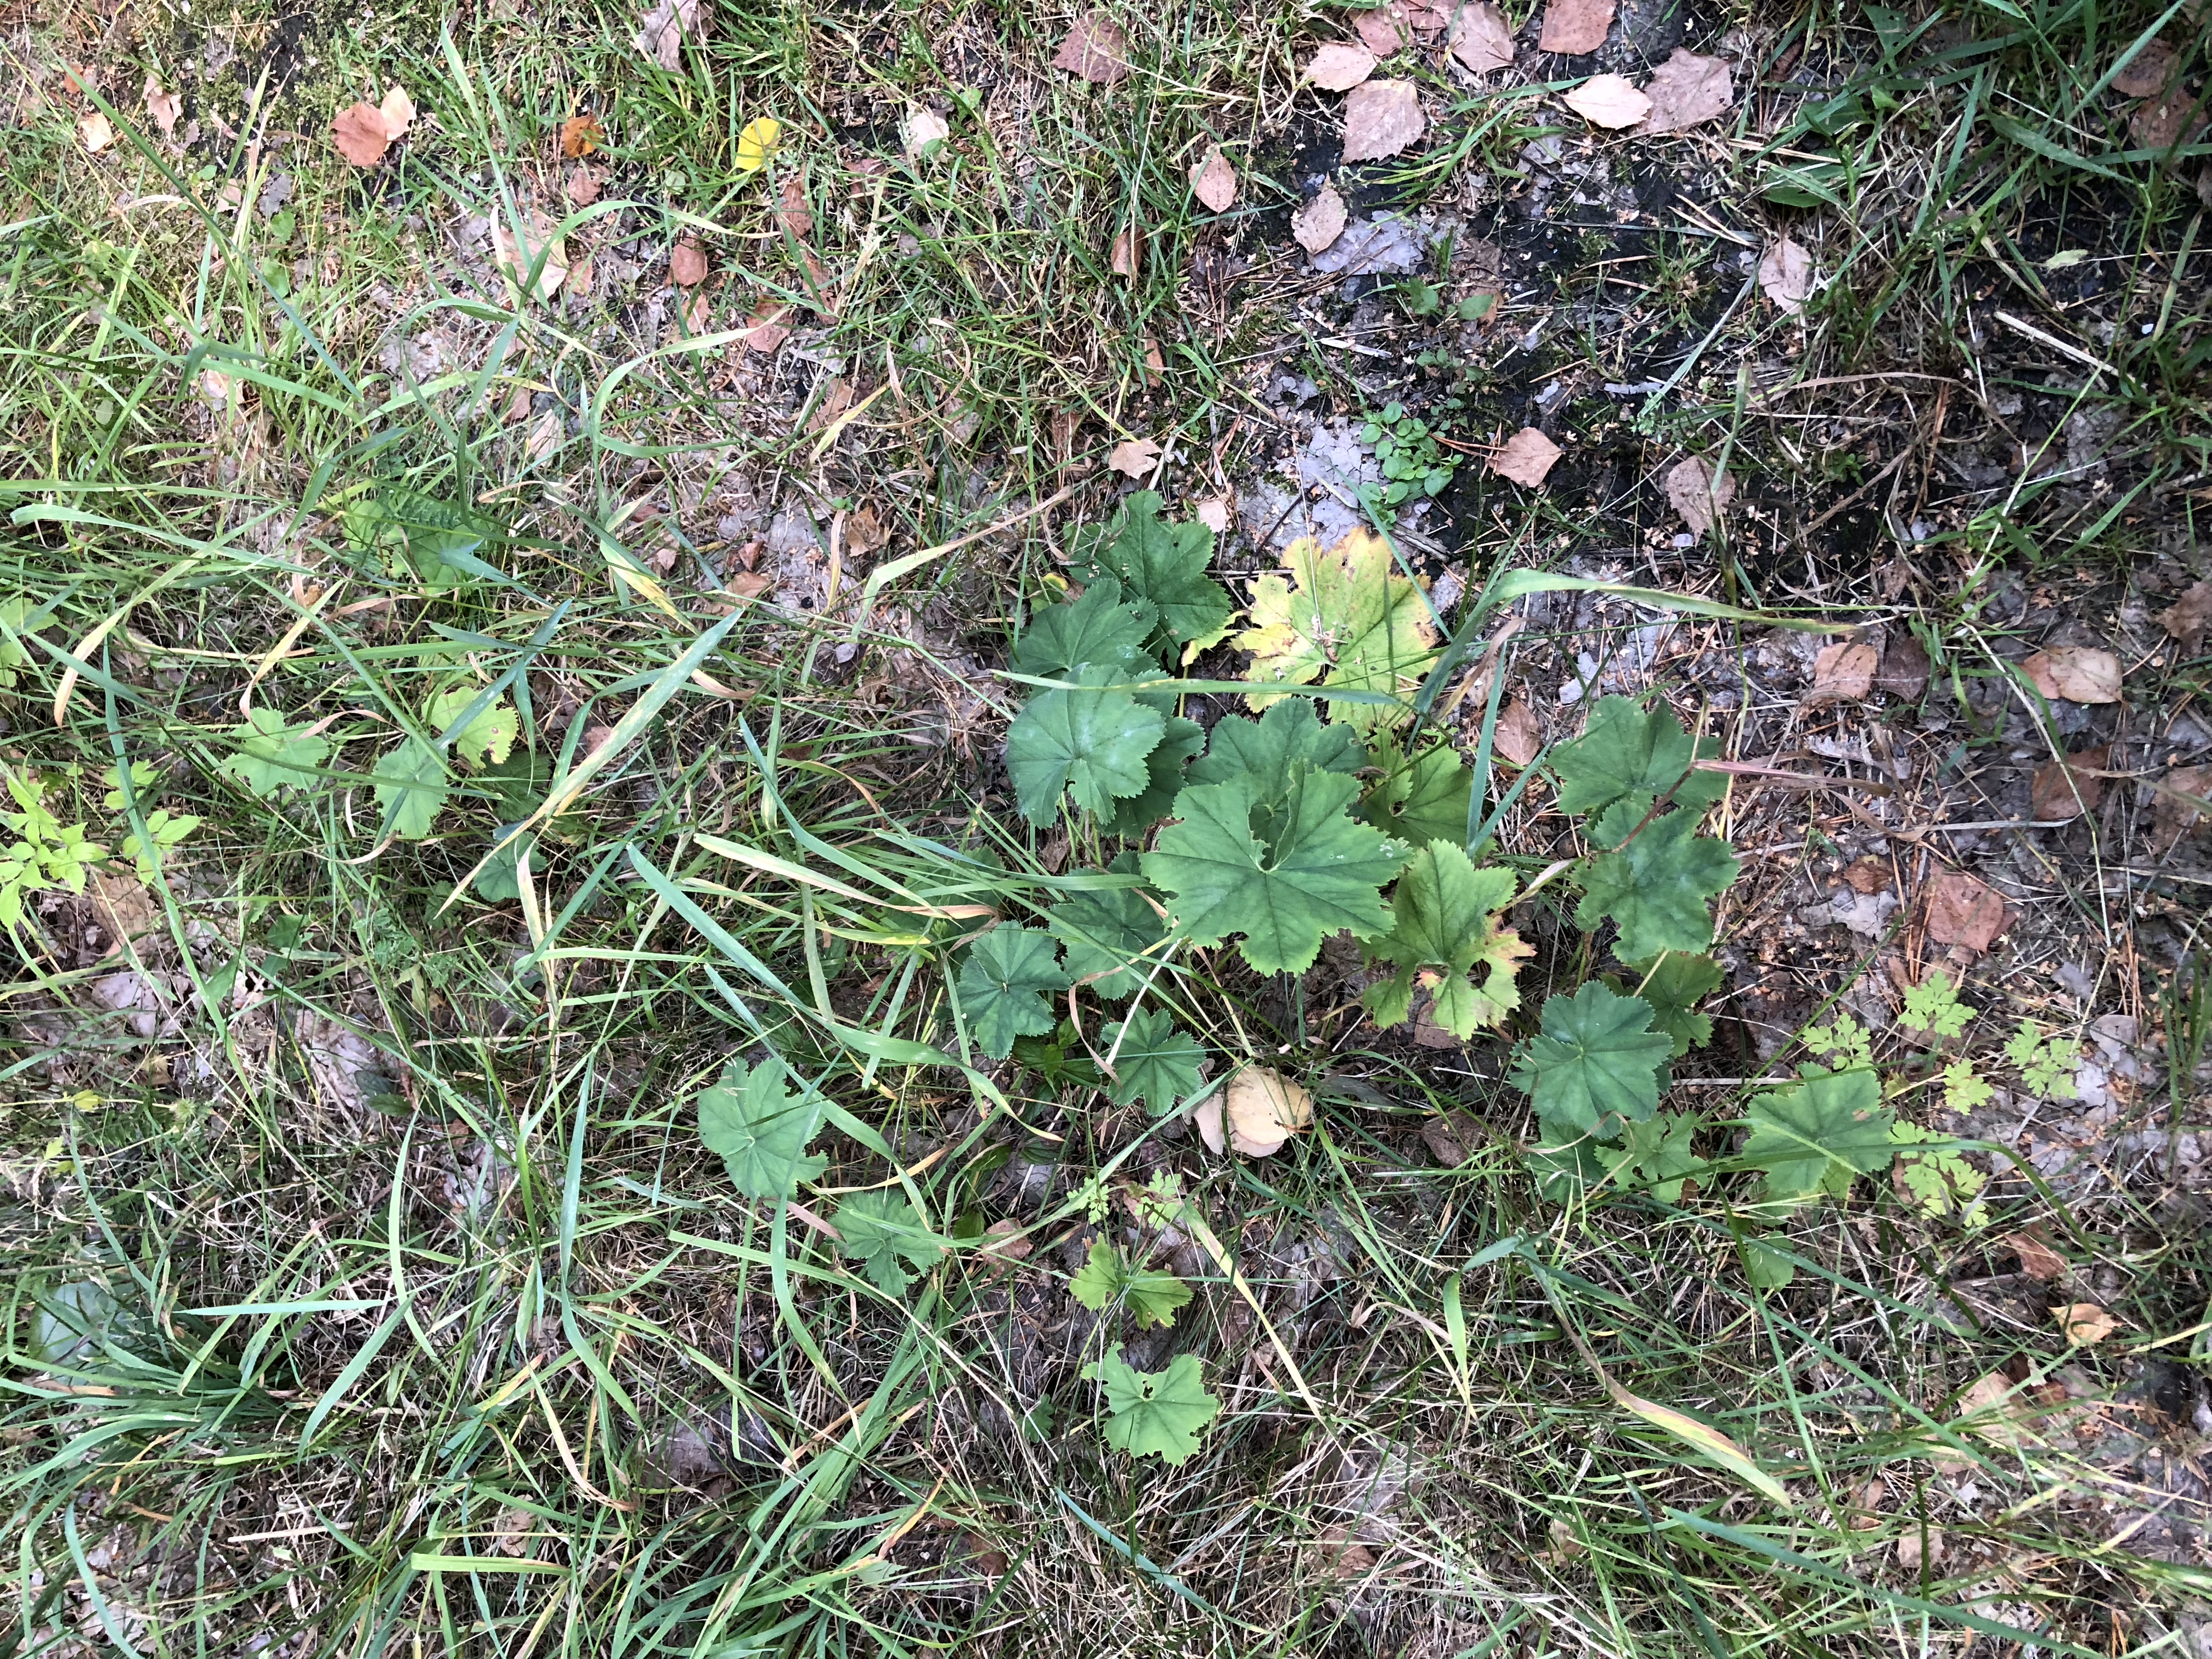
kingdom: Plantae
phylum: Tracheophyta
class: Magnoliopsida
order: Rosales
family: Rosaceae
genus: Alchemilla
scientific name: Alchemilla
